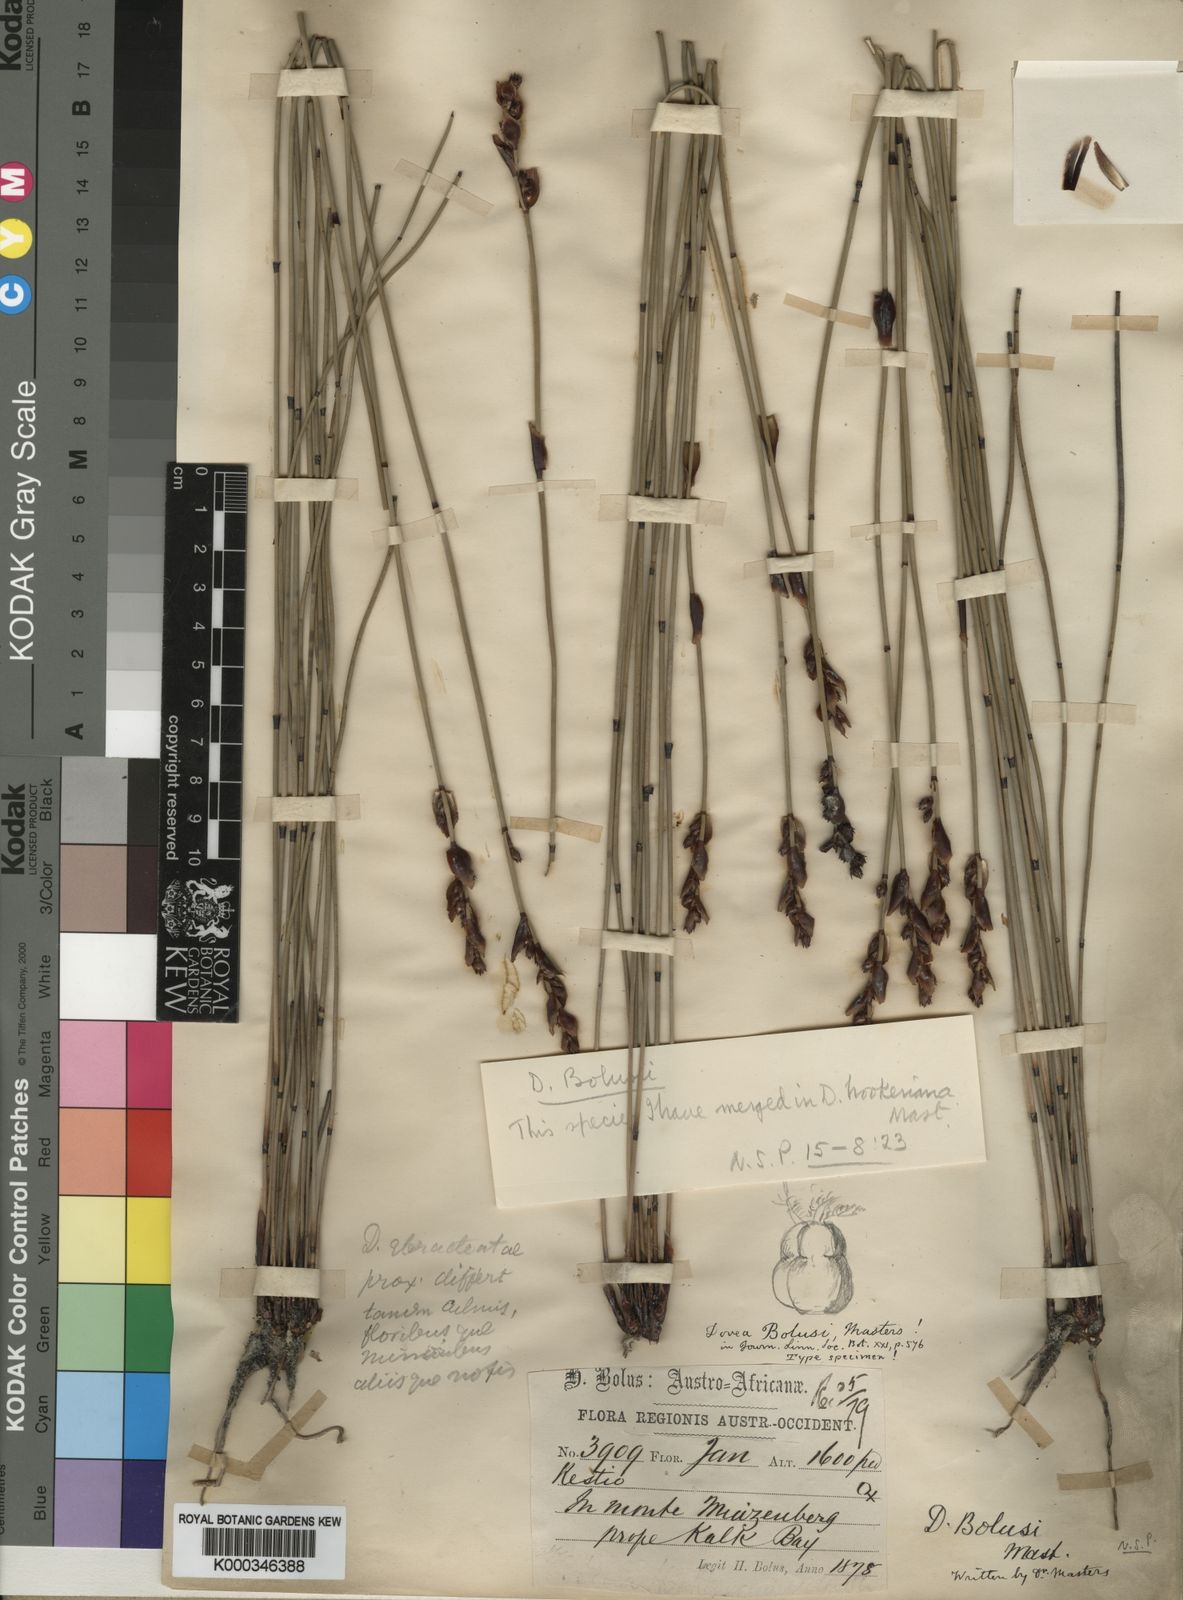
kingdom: Plantae
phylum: Tracheophyta
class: Liliopsida
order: Poales
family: Restionaceae
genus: Elegia
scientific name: Elegia hookeriana
